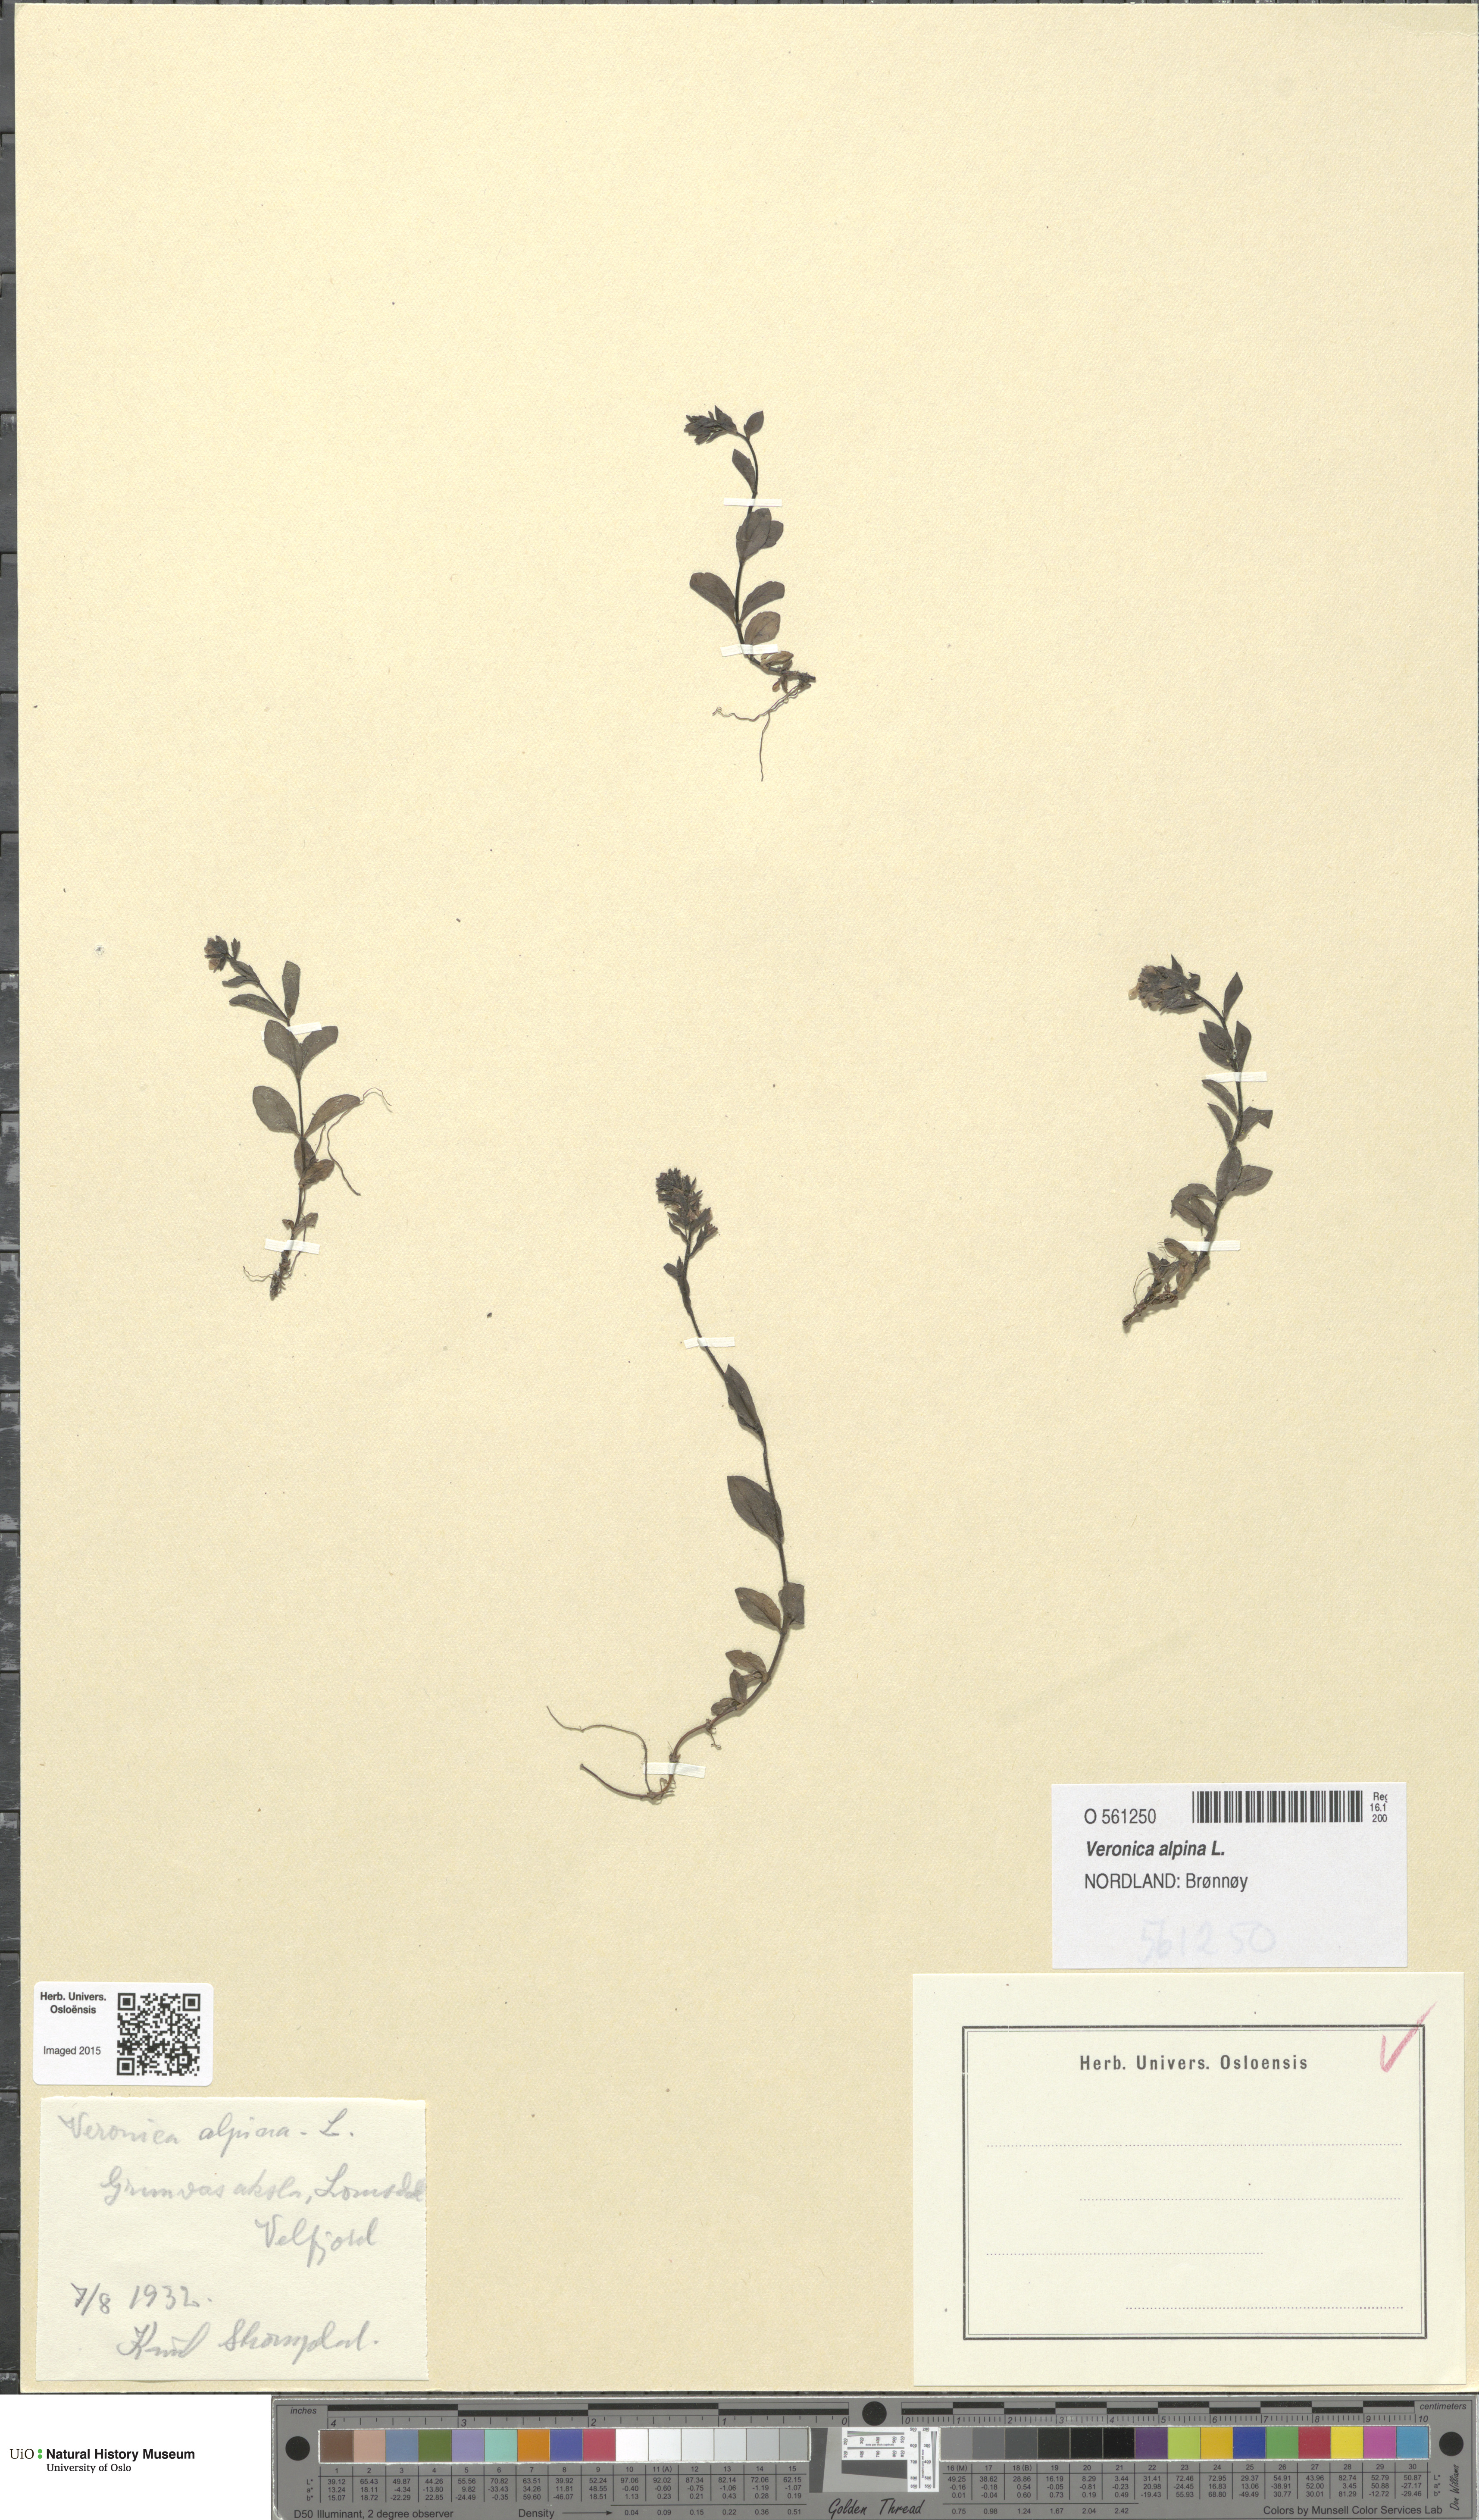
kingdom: Plantae
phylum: Tracheophyta
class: Magnoliopsida
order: Lamiales
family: Plantaginaceae
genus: Veronica
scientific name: Veronica alpina
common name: Alpine speedwell
